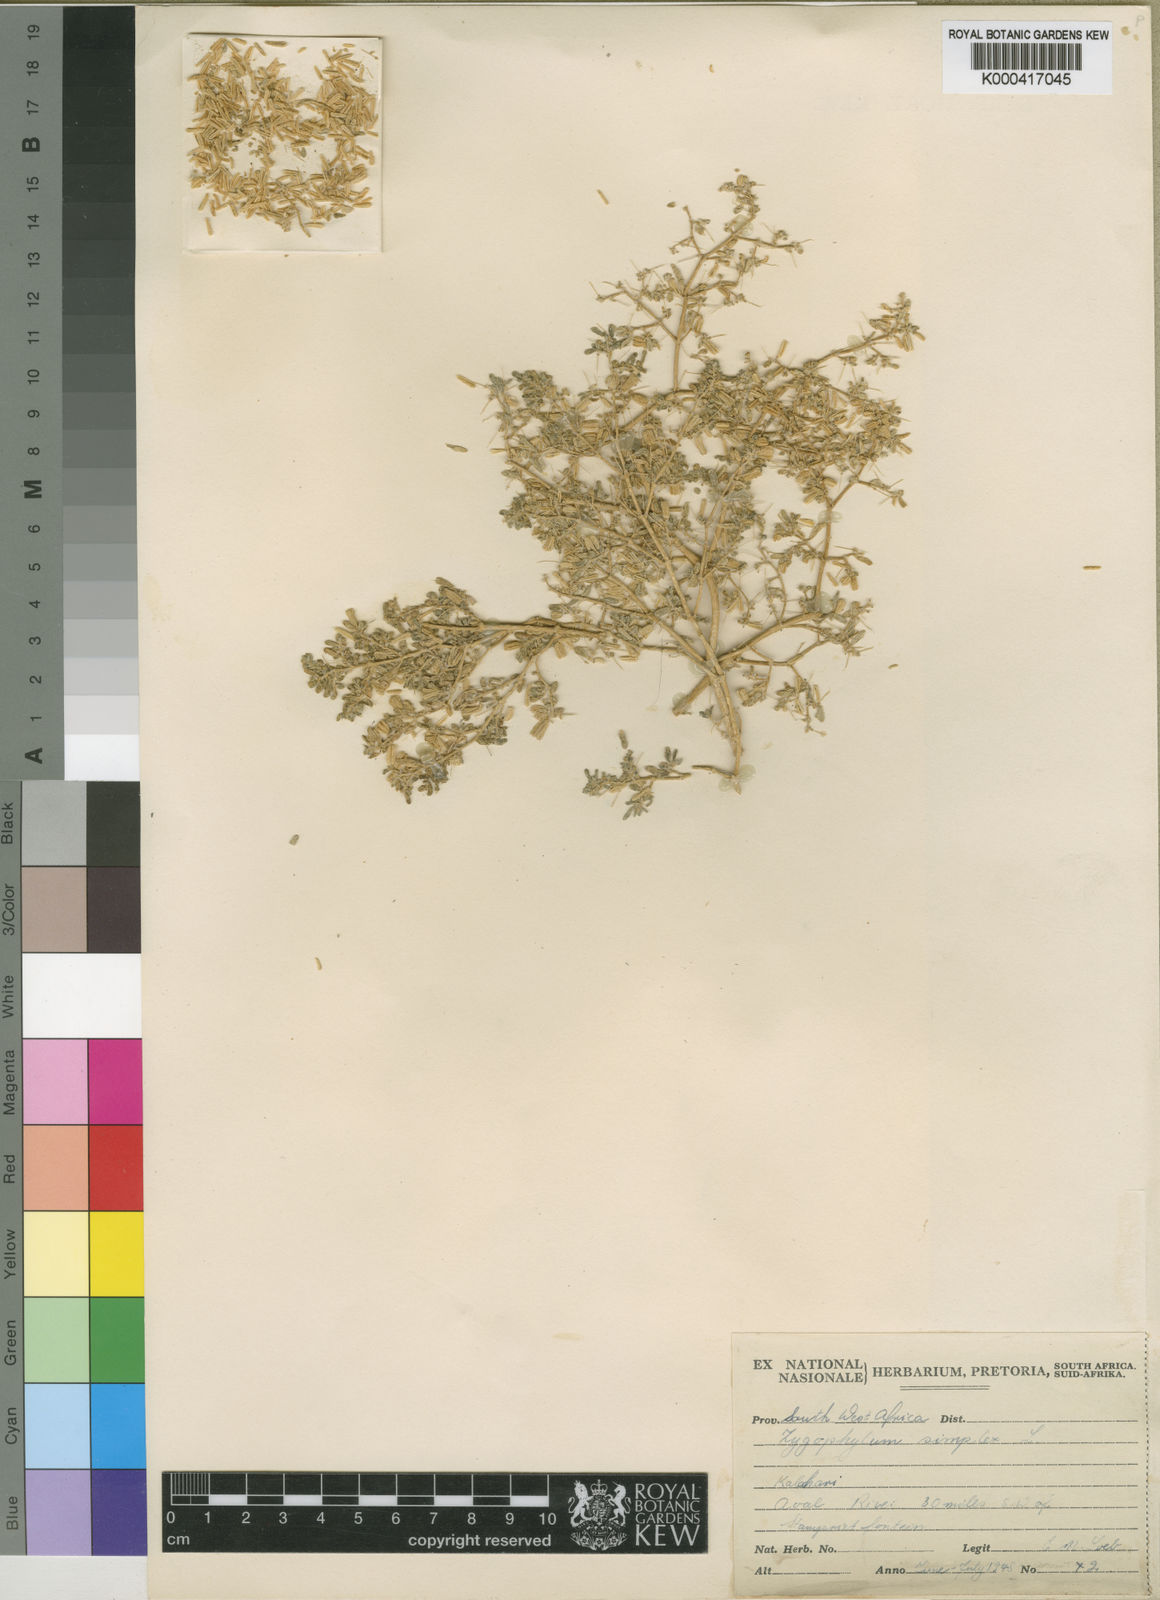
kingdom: Plantae
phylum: Tracheophyta
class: Magnoliopsida
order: Zygophyllales
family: Zygophyllaceae
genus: Tetraena
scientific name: Tetraena simplex
